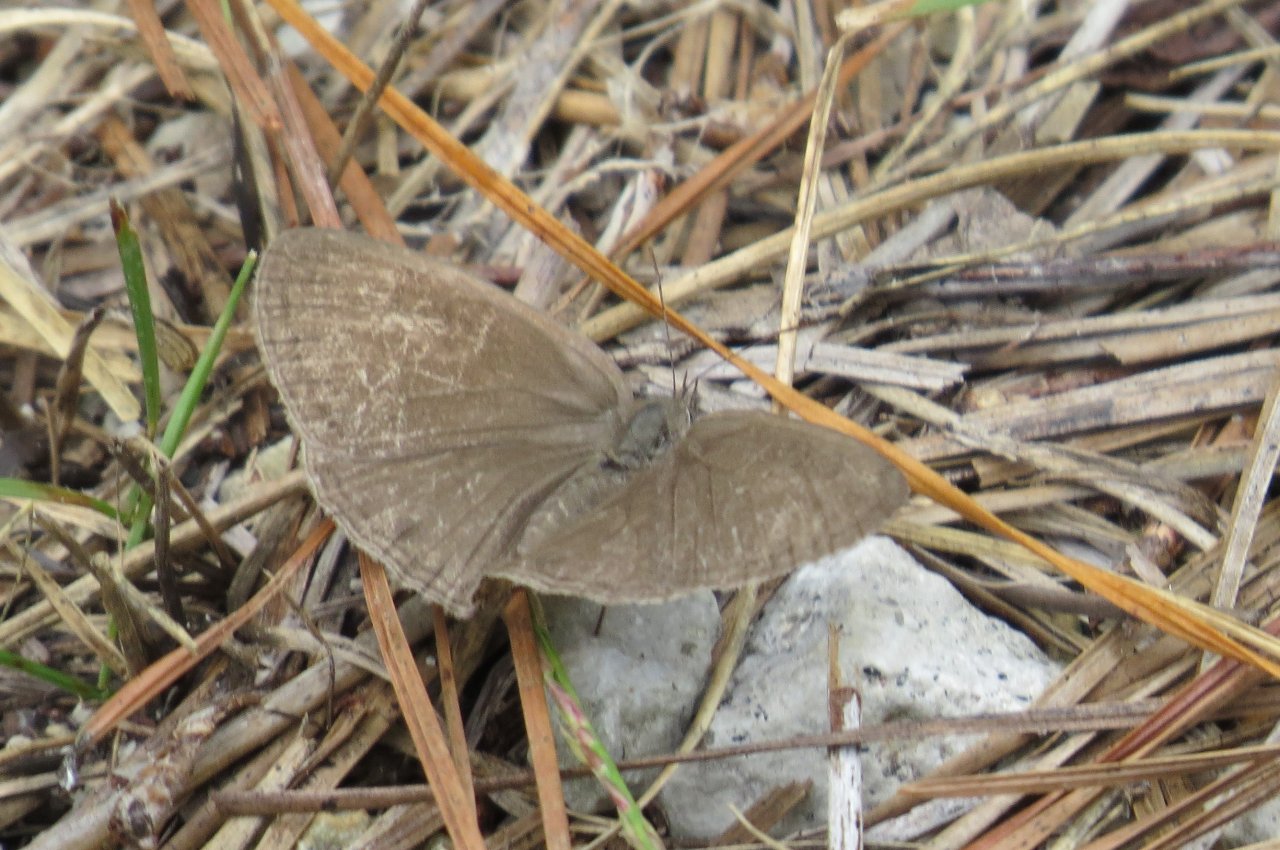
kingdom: Animalia
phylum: Arthropoda
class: Insecta
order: Lepidoptera
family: Nymphalidae
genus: Hermeuptychia
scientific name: Hermeuptychia hermes
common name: Carolina Satyr
